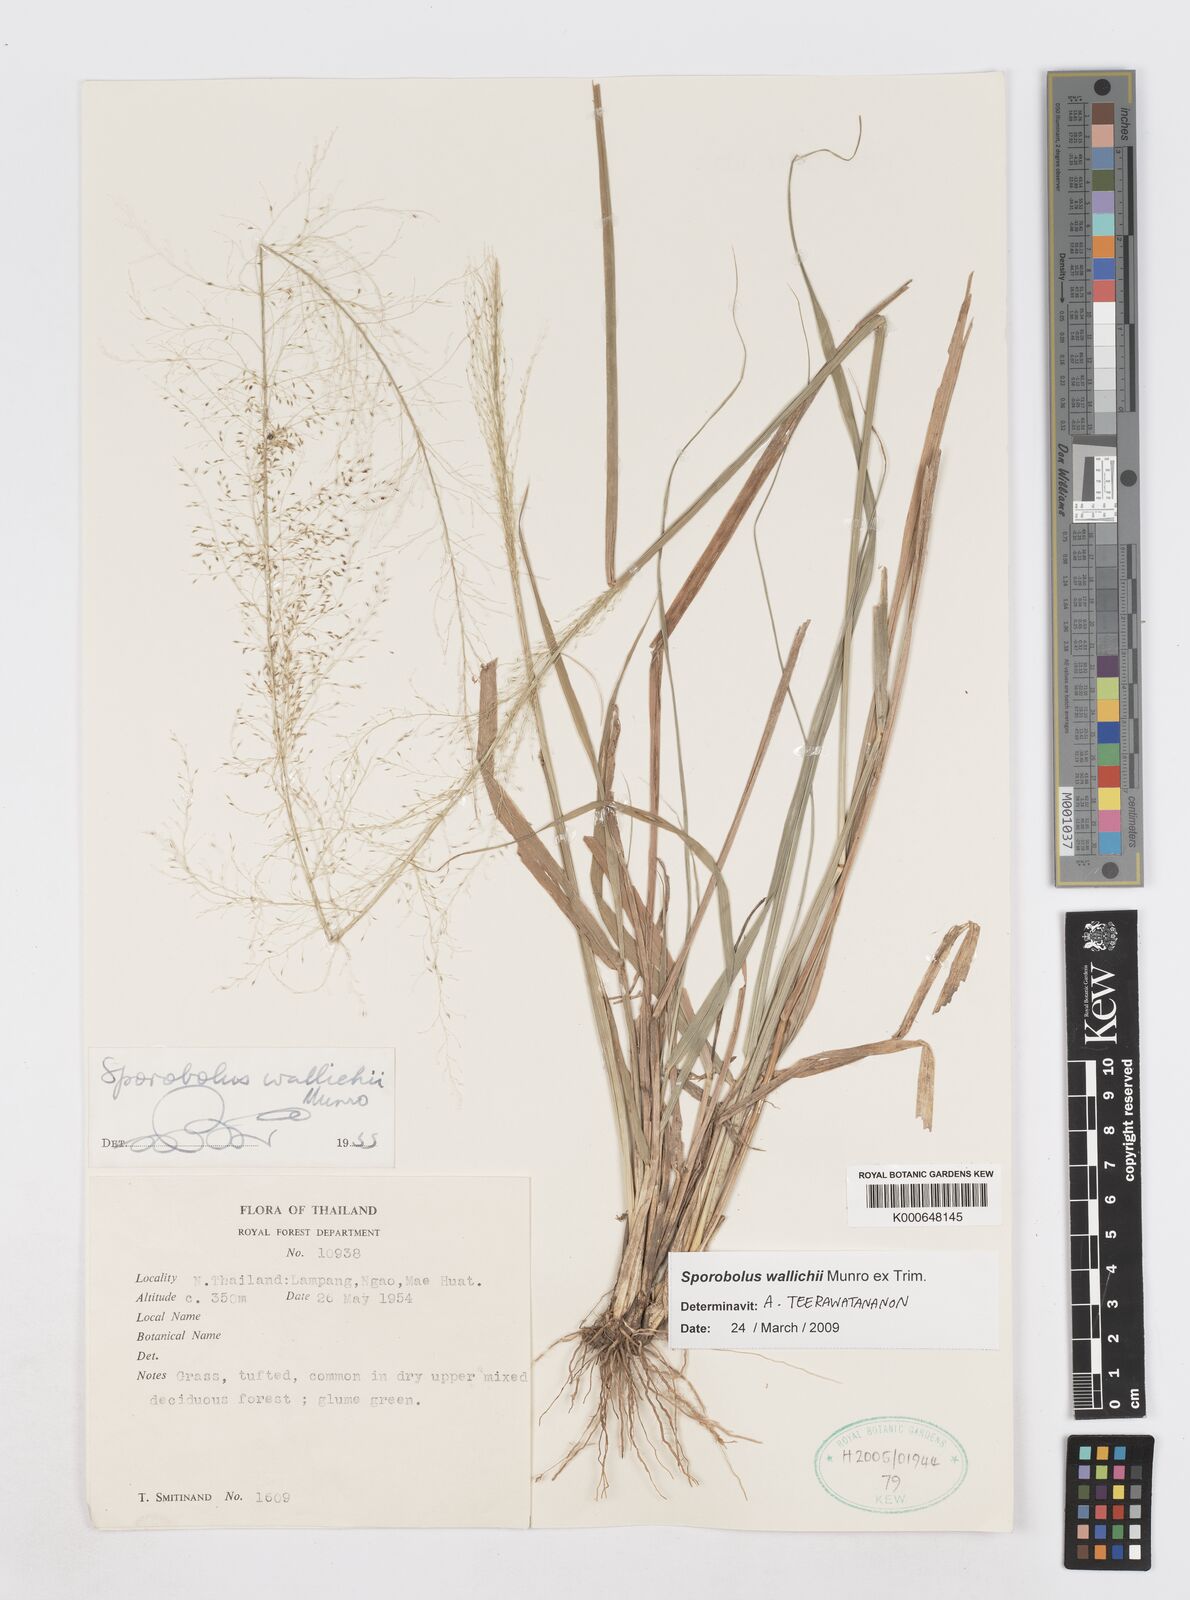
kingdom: Plantae
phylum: Tracheophyta
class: Liliopsida
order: Poales
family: Poaceae
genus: Sporobolus
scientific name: Sporobolus
